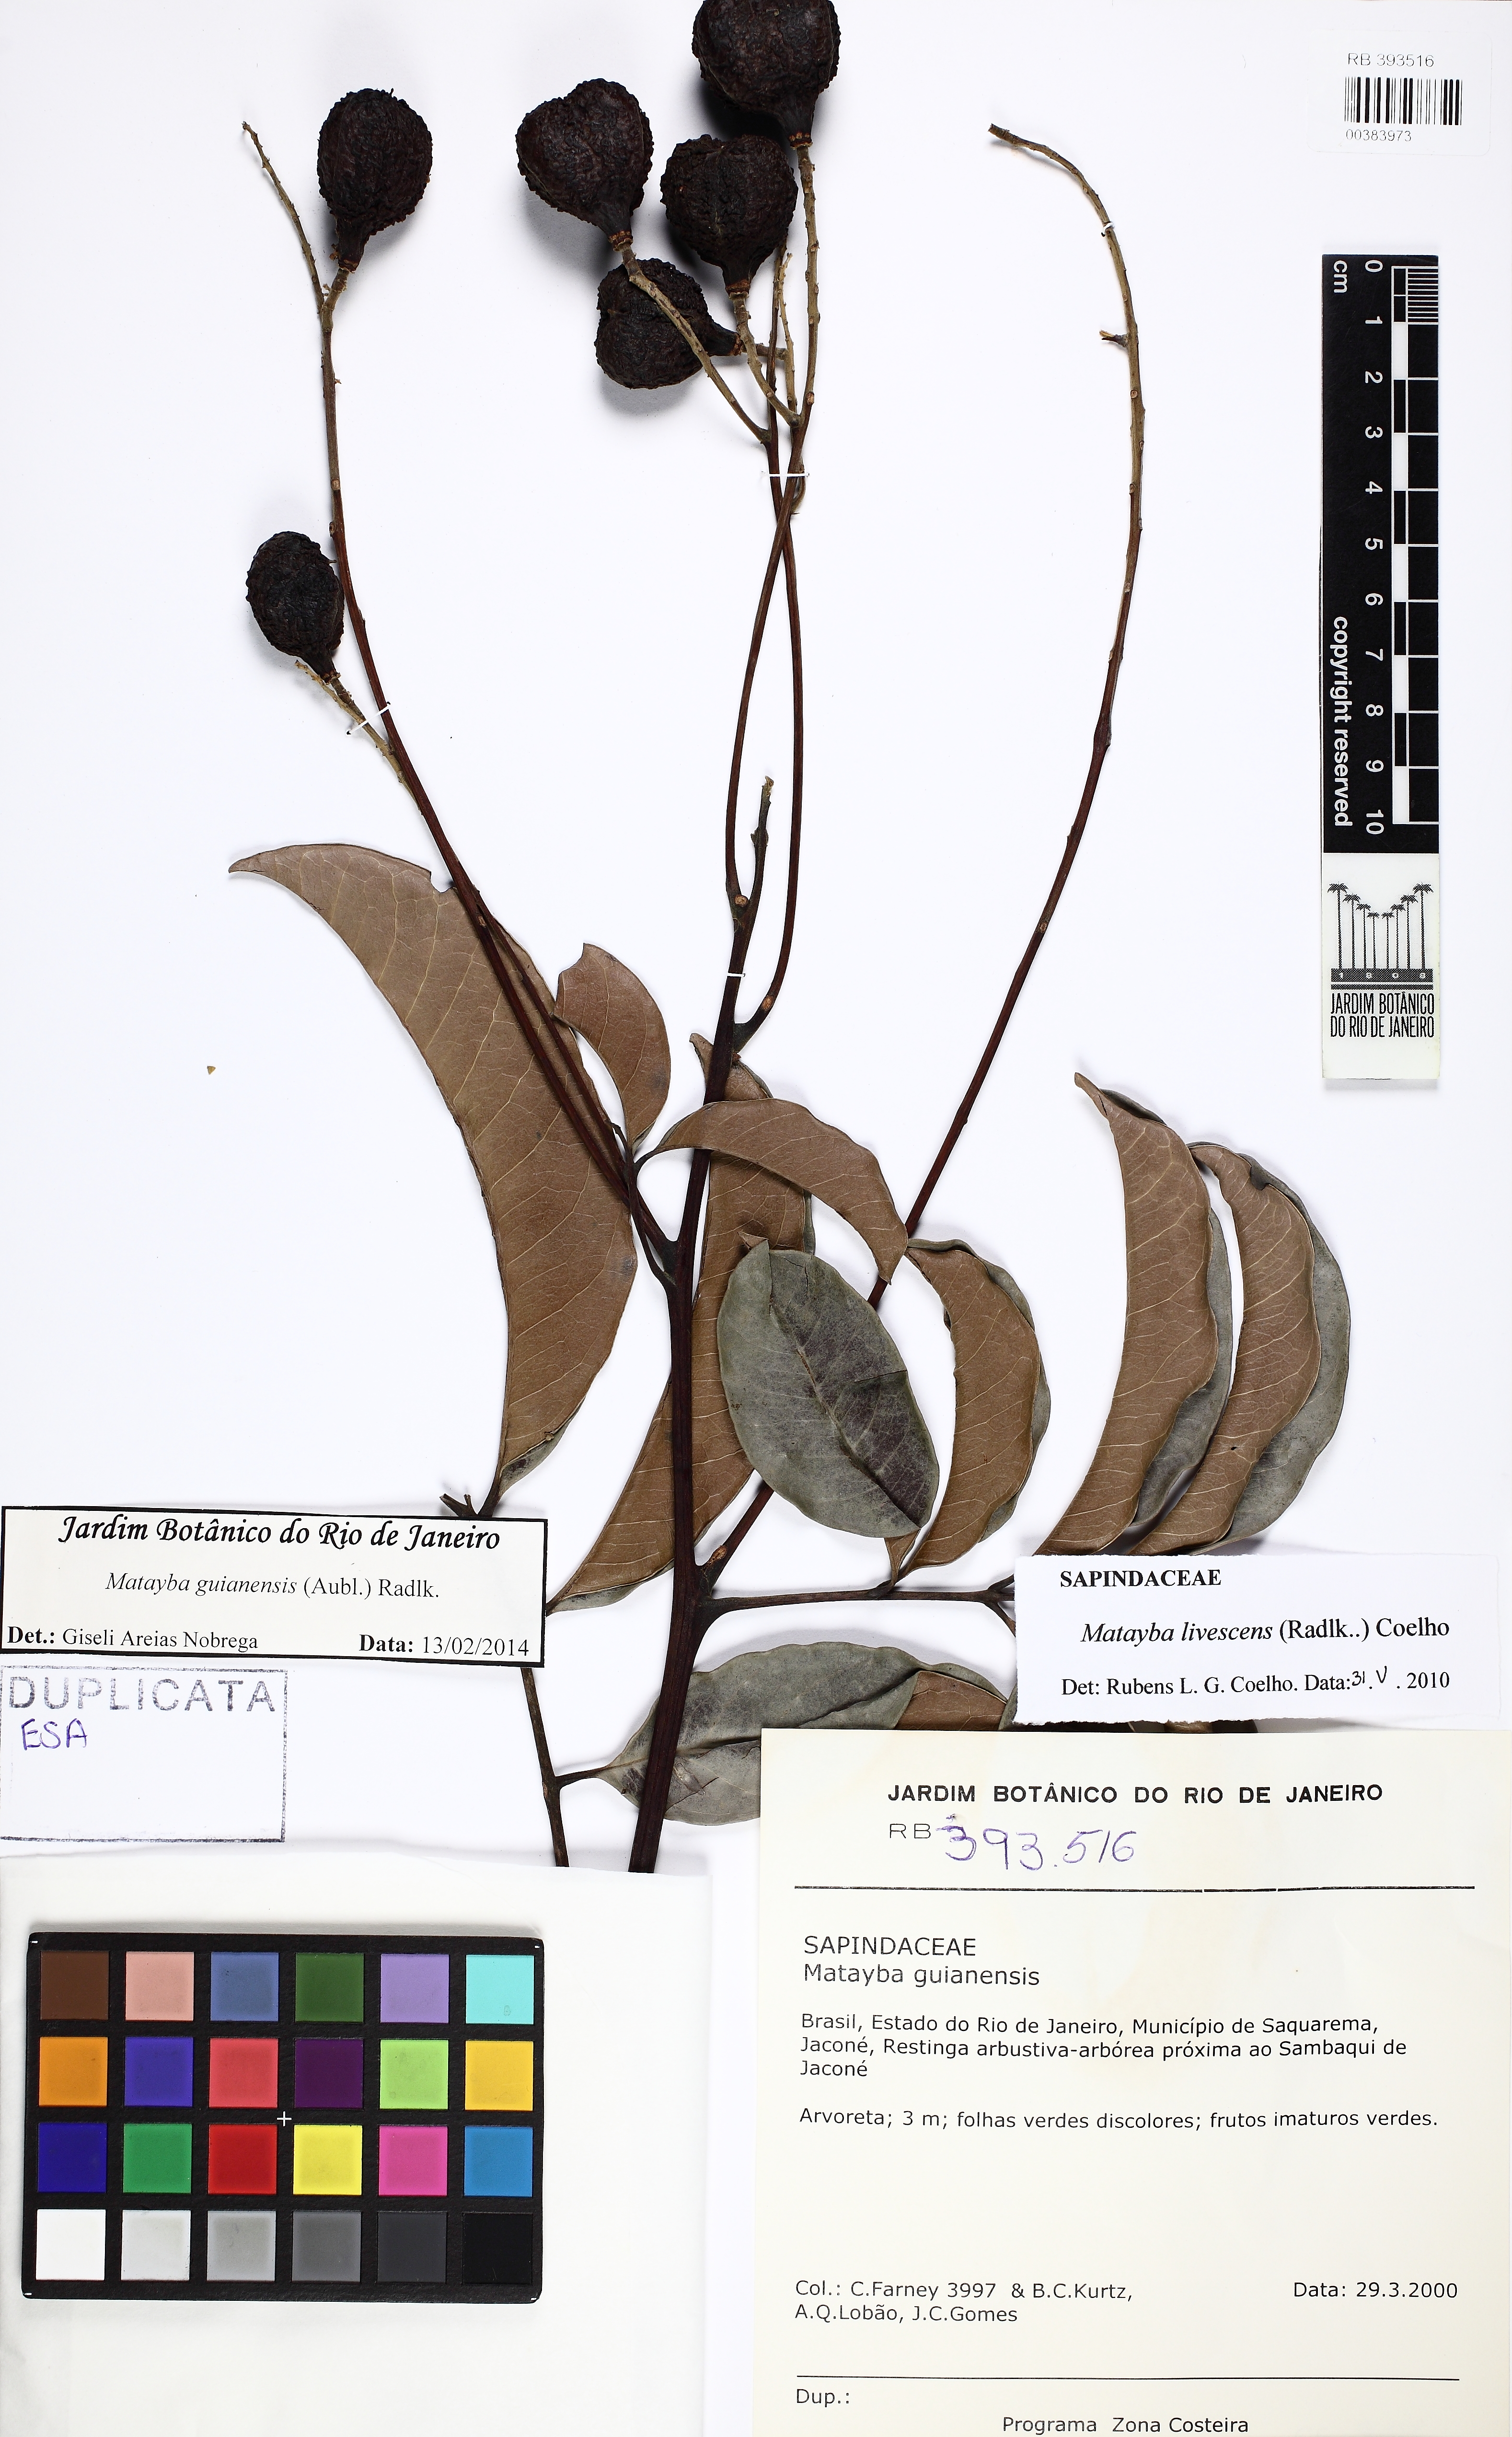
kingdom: Plantae
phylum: Tracheophyta
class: Magnoliopsida
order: Sapindales
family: Sapindaceae
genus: Matayba
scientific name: Matayba guianensis
